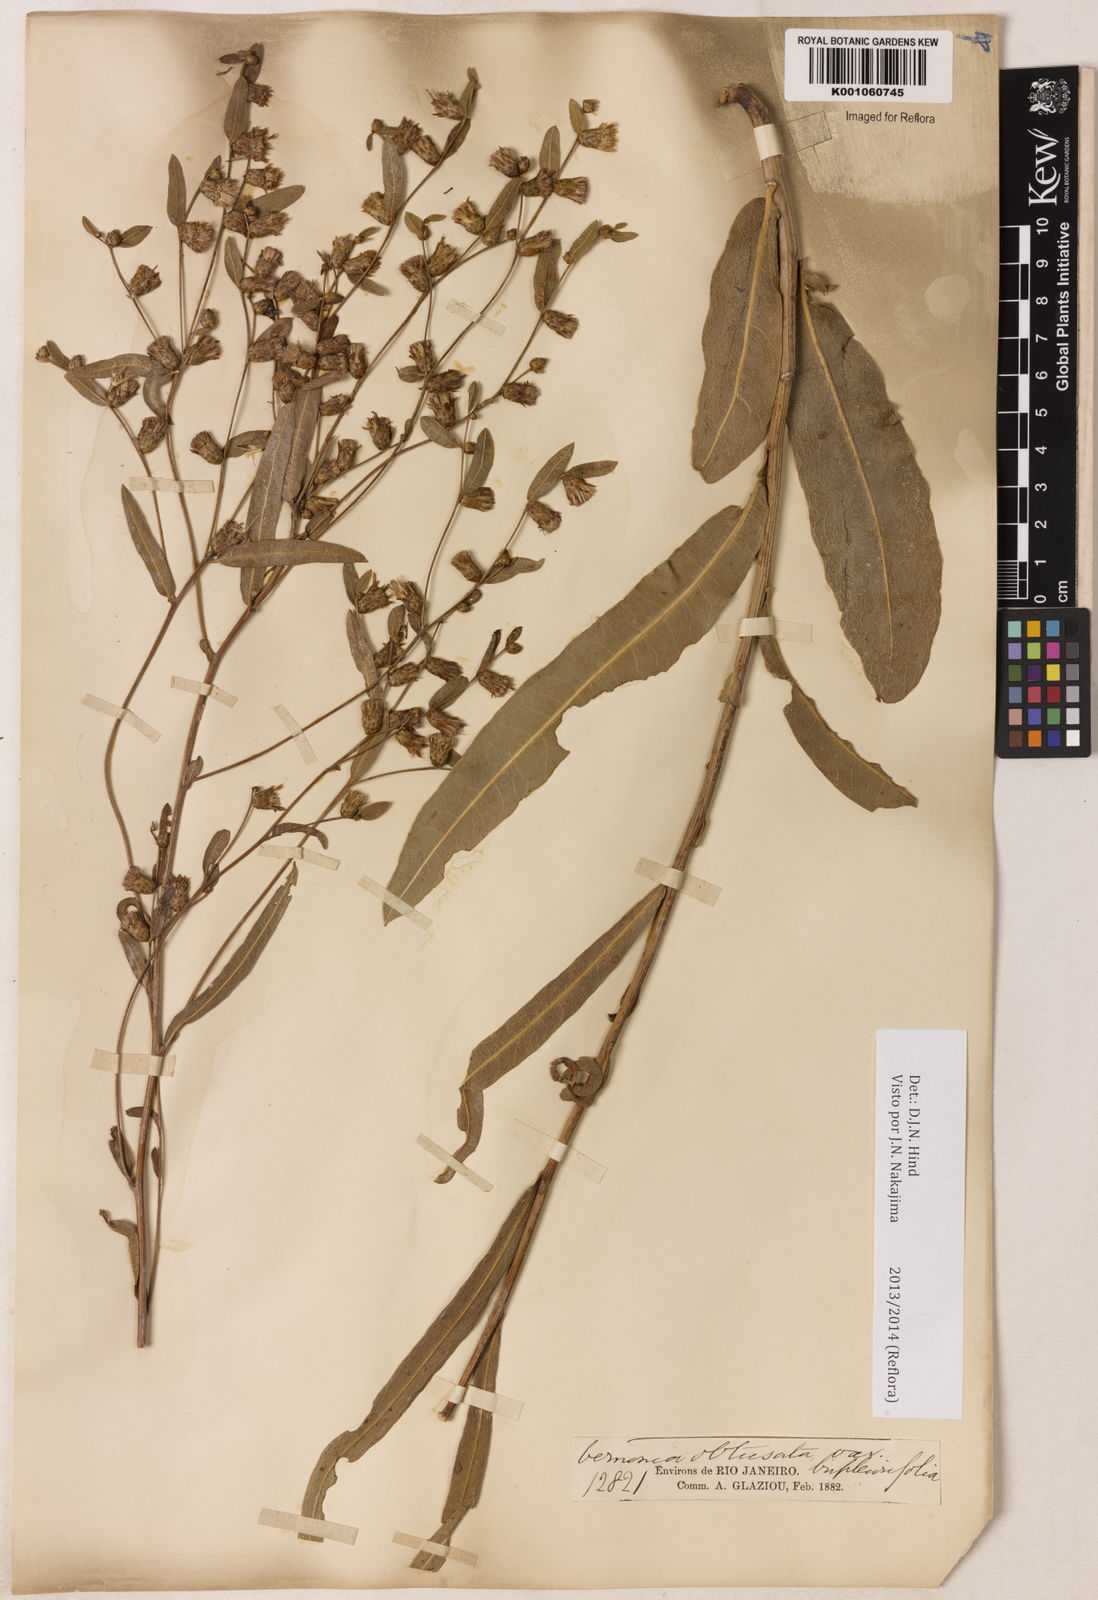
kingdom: Plantae
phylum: Tracheophyta
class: Magnoliopsida
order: Asterales
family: Asteraceae
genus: Lessingianthus
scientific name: Lessingianthus obtusatus
